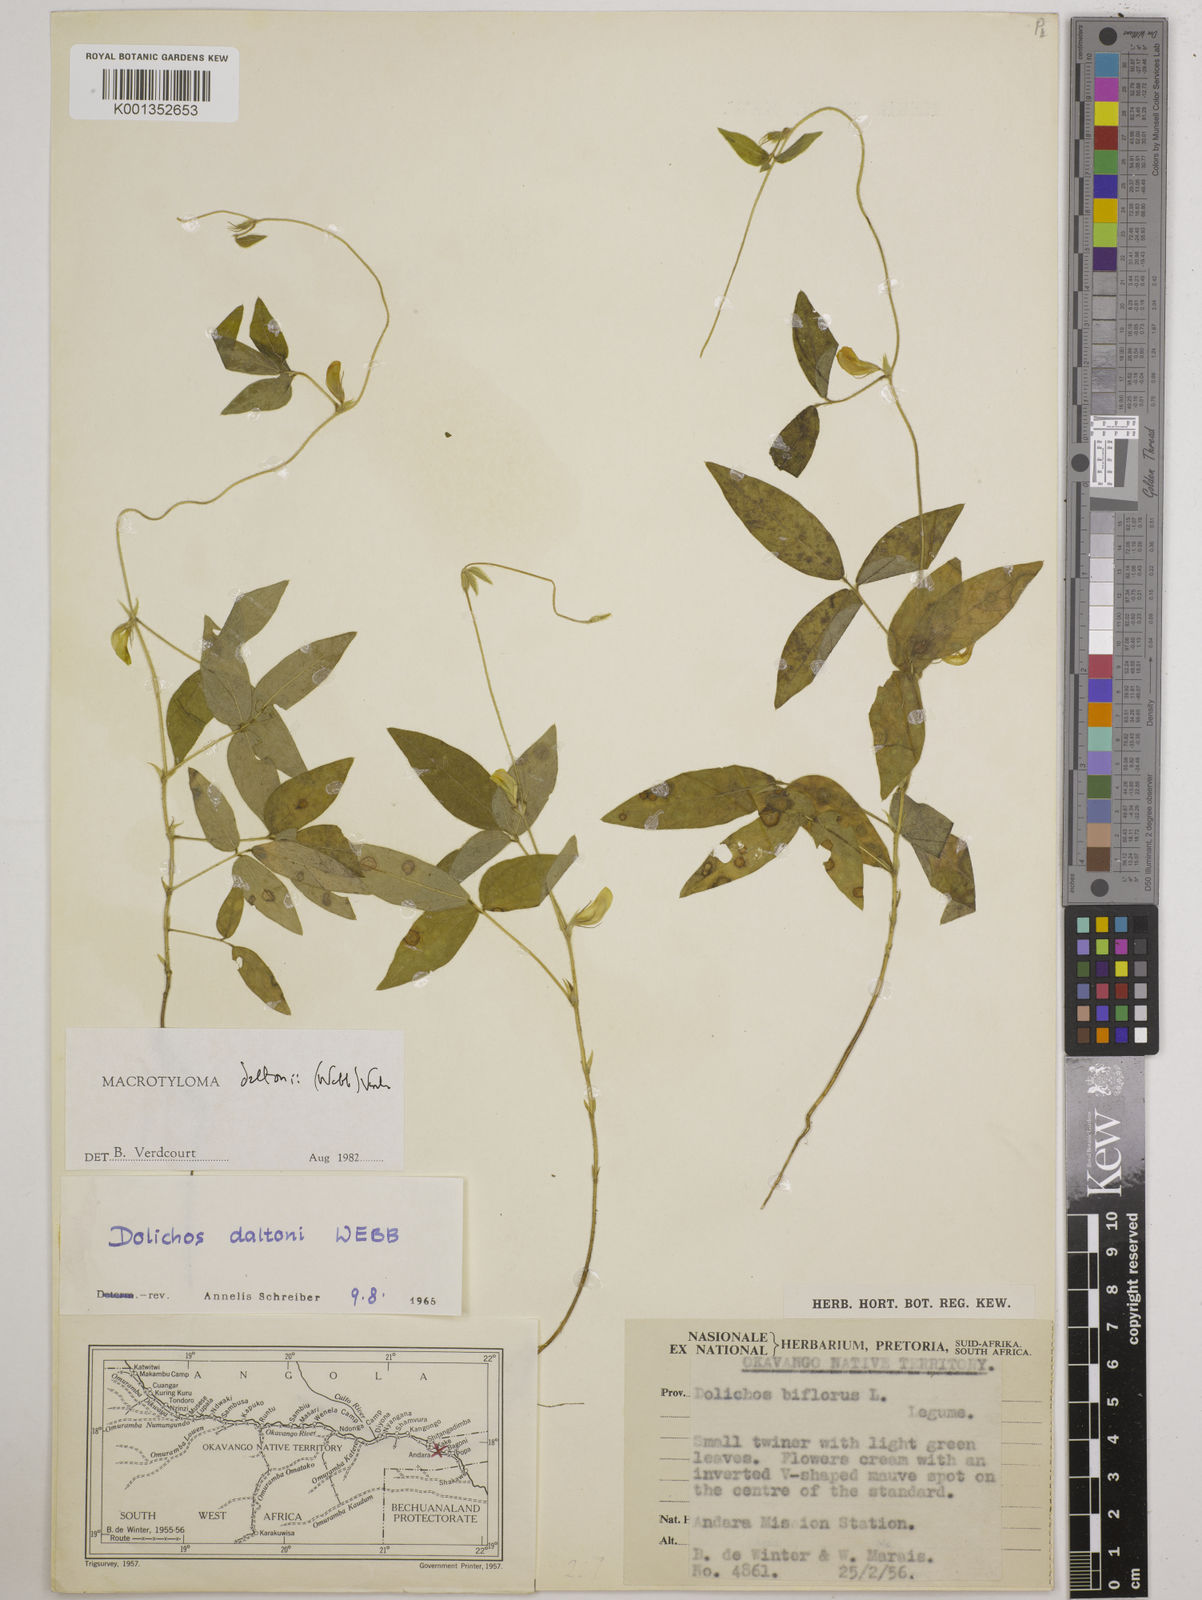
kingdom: Plantae
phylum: Tracheophyta
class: Magnoliopsida
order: Fabales
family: Fabaceae
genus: Macrotyloma
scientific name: Macrotyloma daltonii
